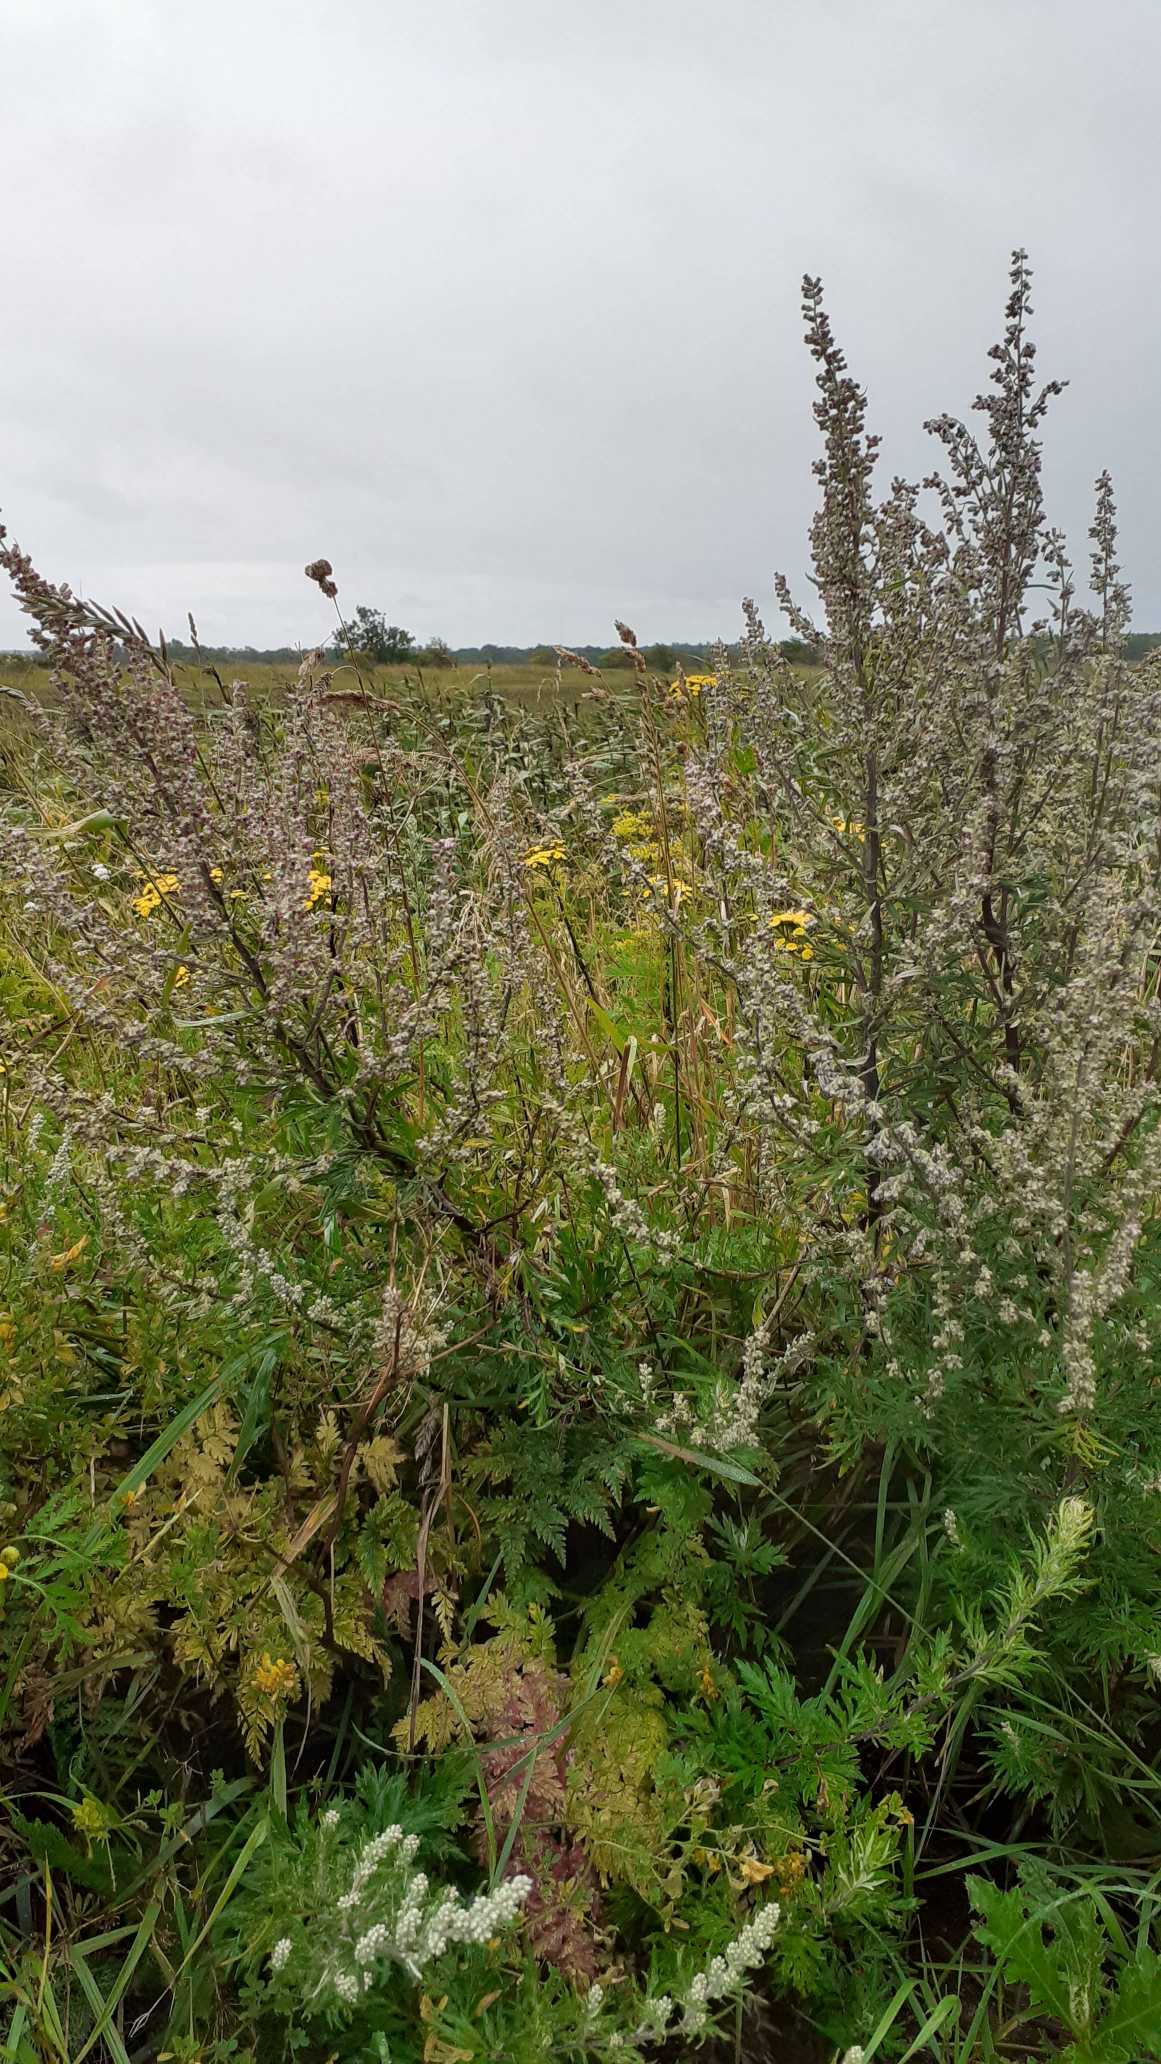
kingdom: Plantae
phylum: Tracheophyta
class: Magnoliopsida
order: Asterales
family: Asteraceae
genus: Artemisia
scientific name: Artemisia vulgaris
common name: Grå-bynke
